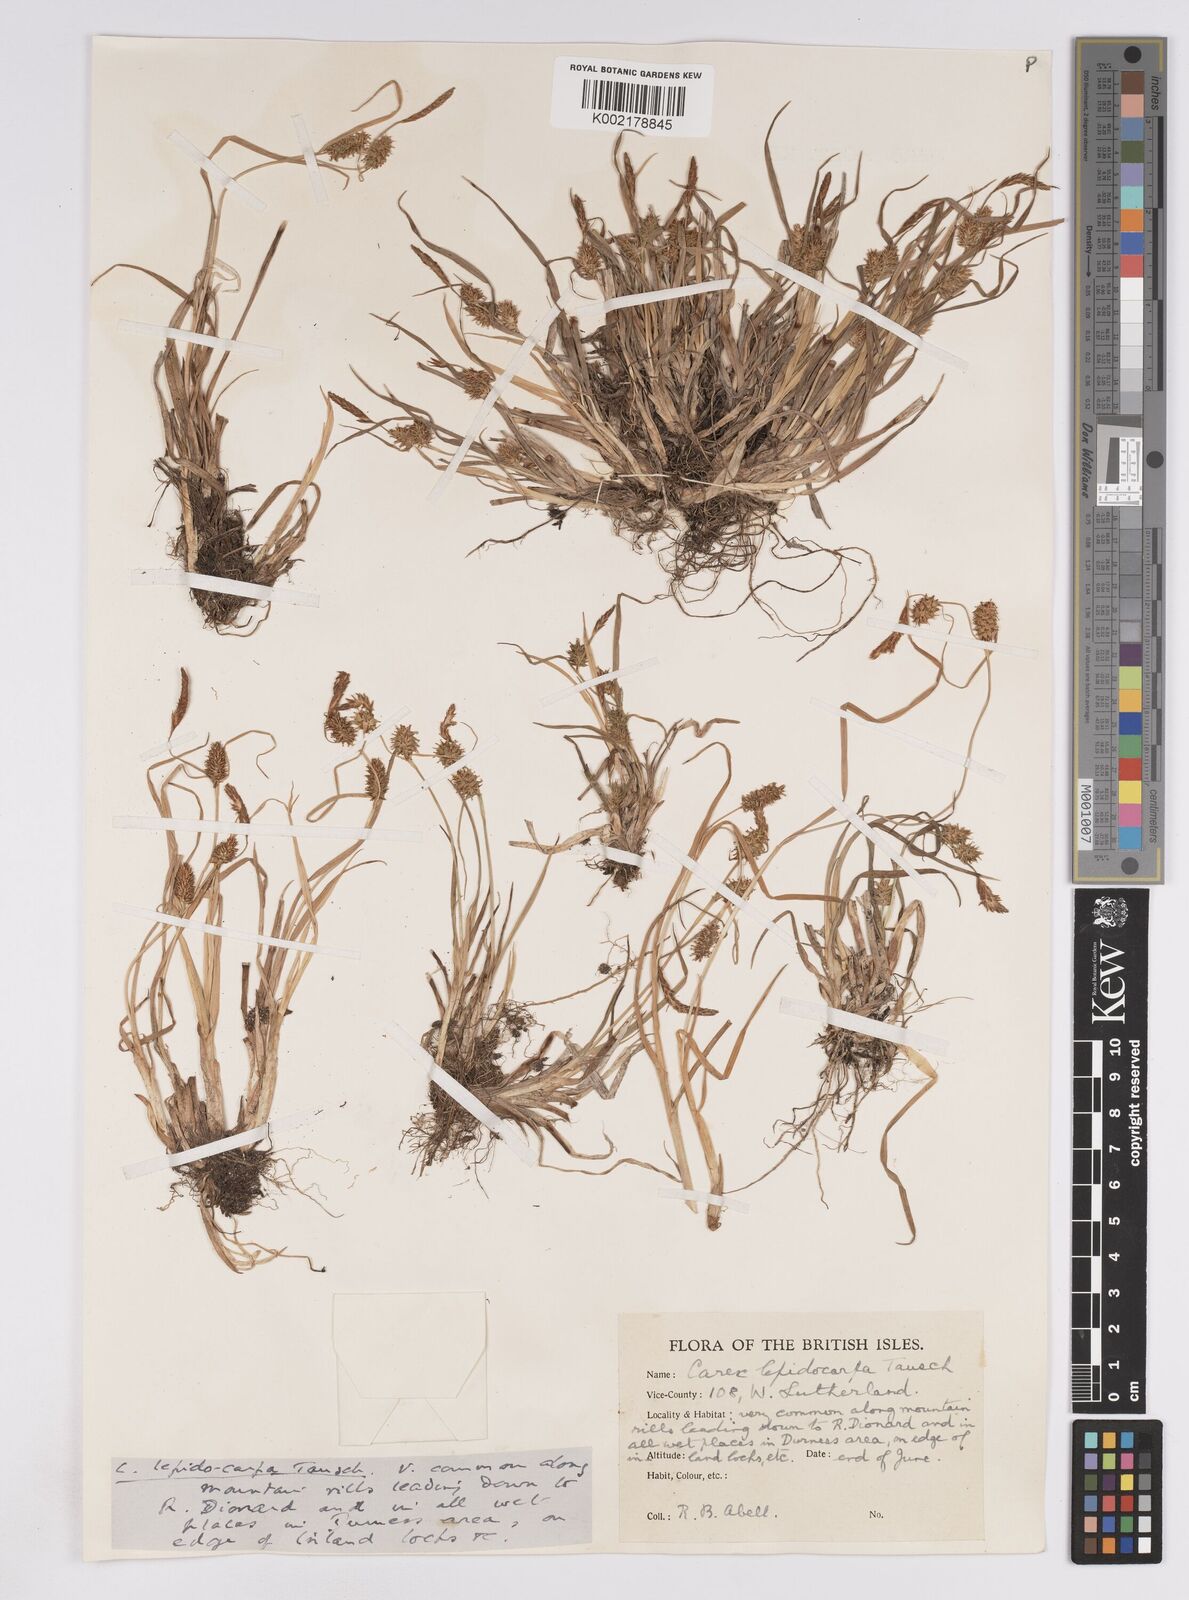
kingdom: Plantae
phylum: Tracheophyta
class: Liliopsida
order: Poales
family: Cyperaceae
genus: Carex
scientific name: Carex lepidocarpa
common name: Long-stalked yellow-sedge
